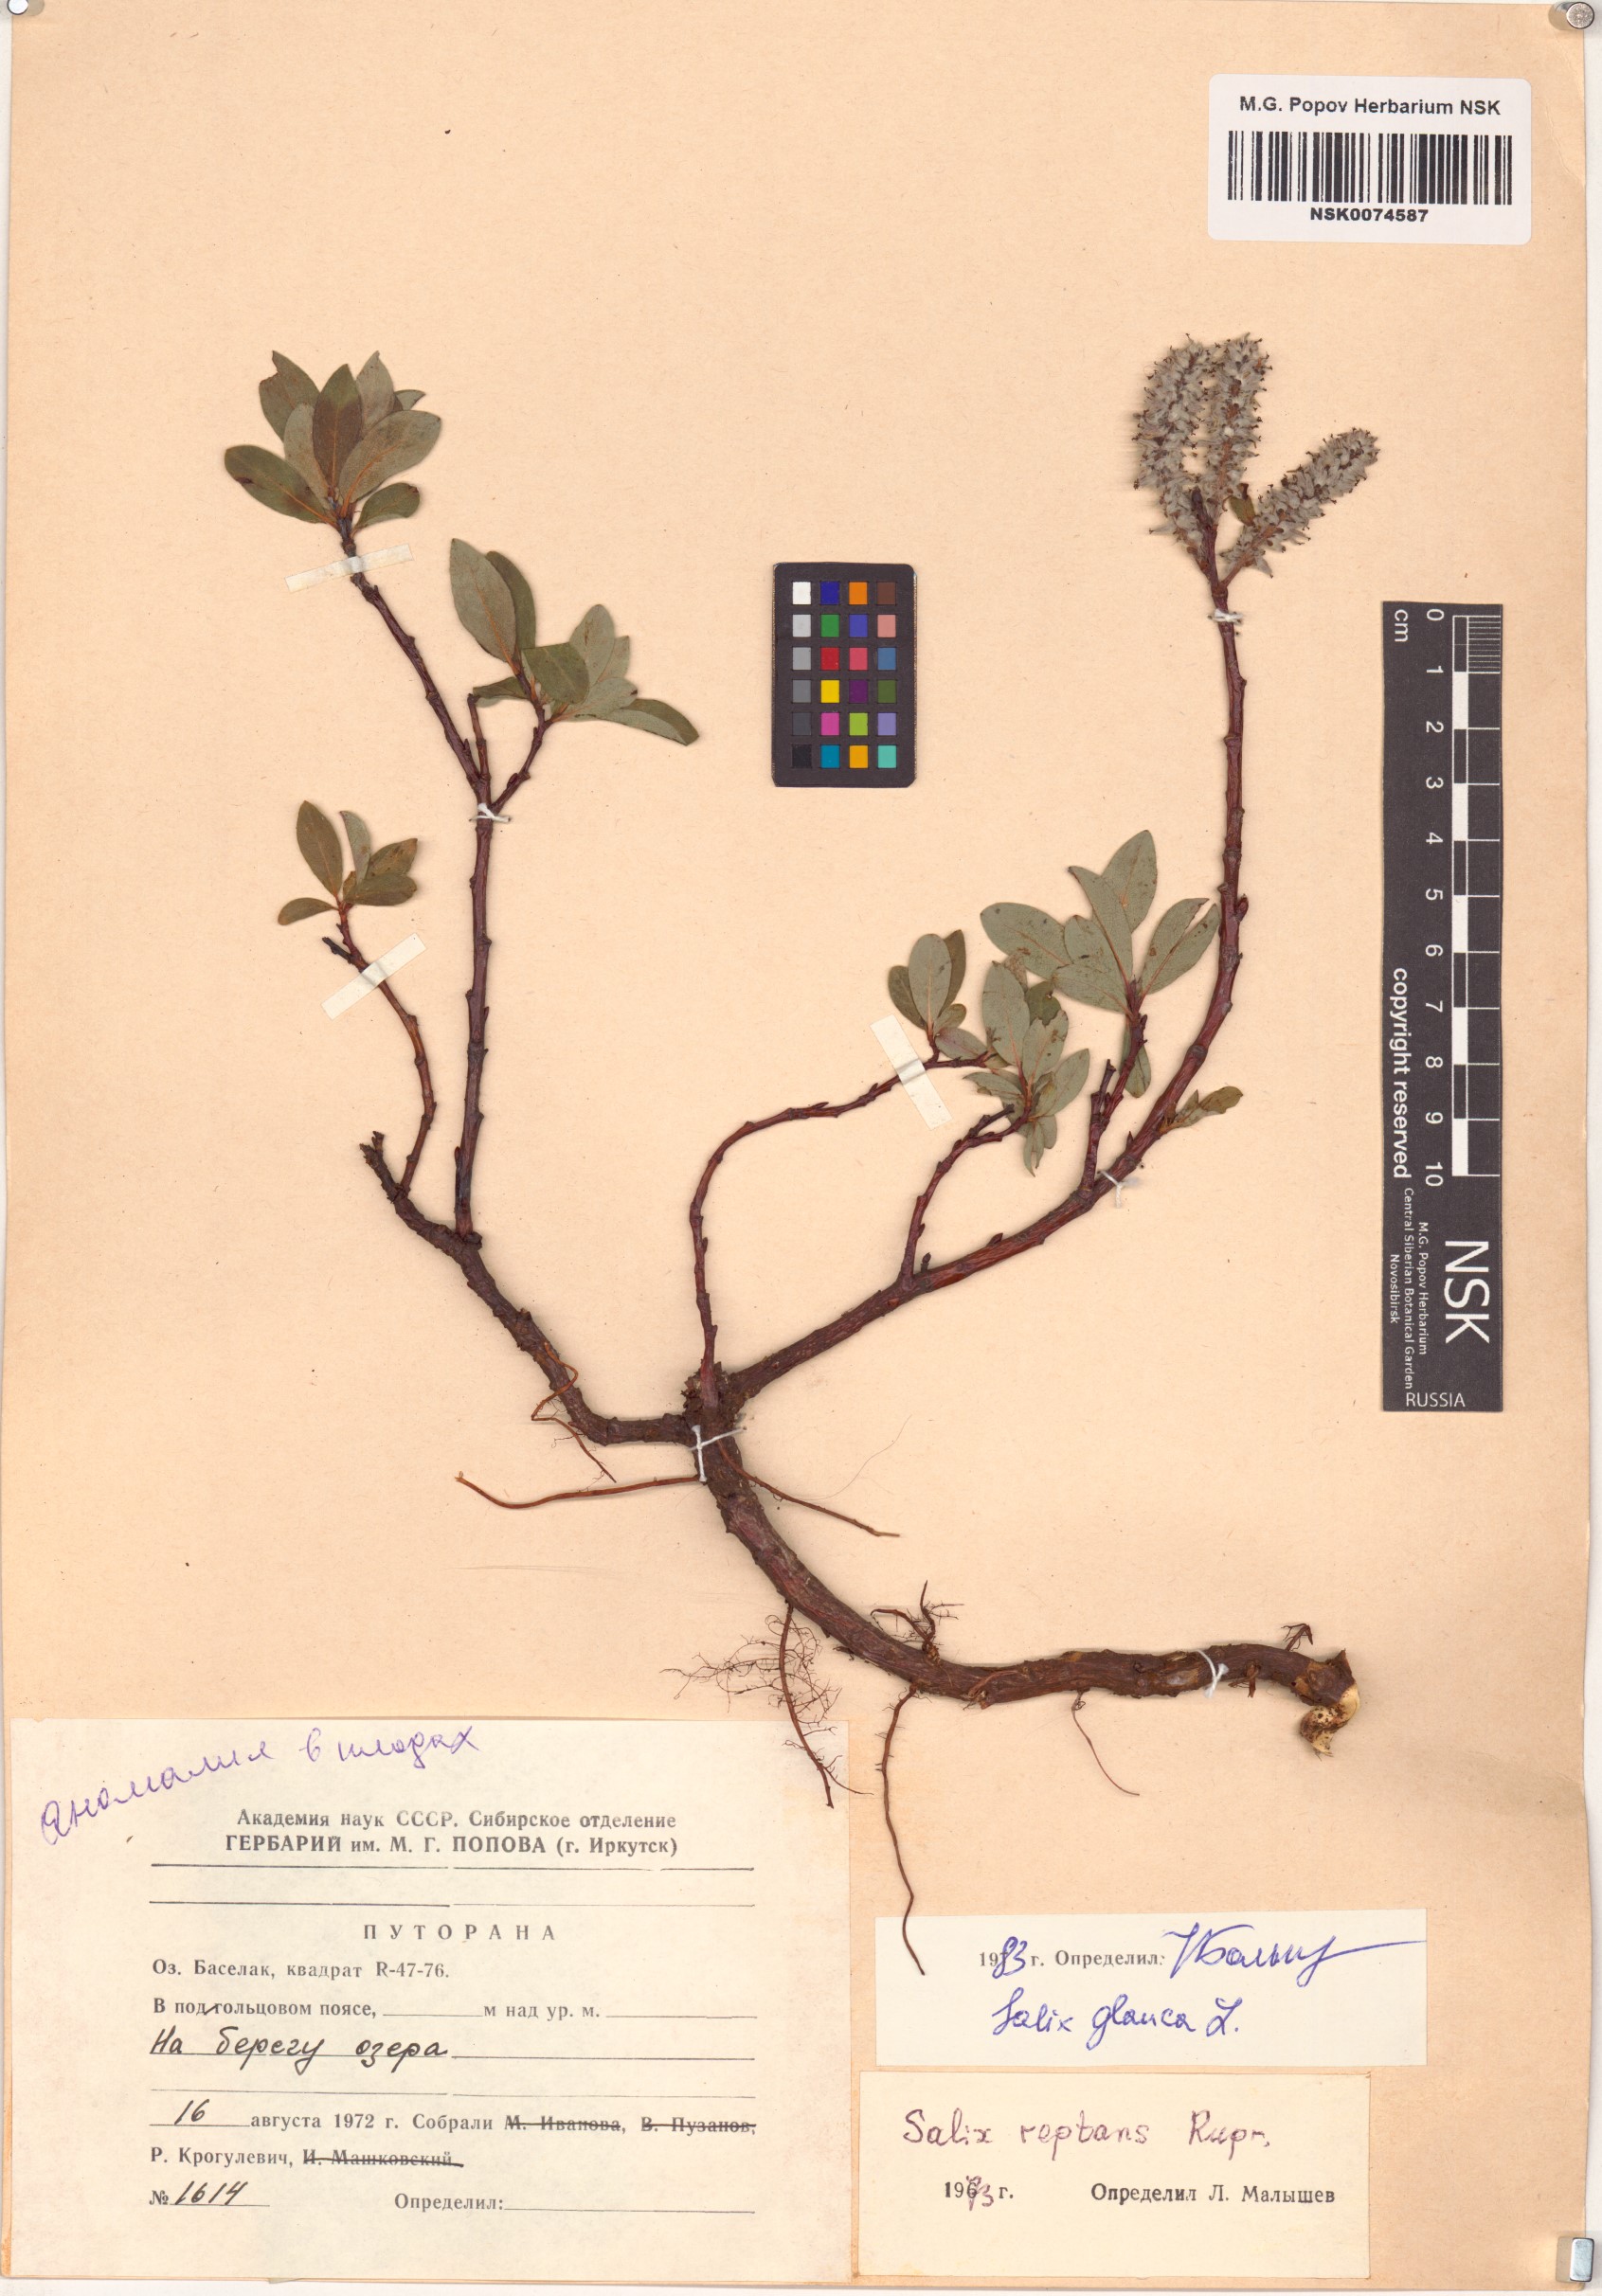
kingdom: Plantae
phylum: Tracheophyta
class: Magnoliopsida
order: Malpighiales
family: Salicaceae
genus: Salix
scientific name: Salix glauca
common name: Glaucous willow
